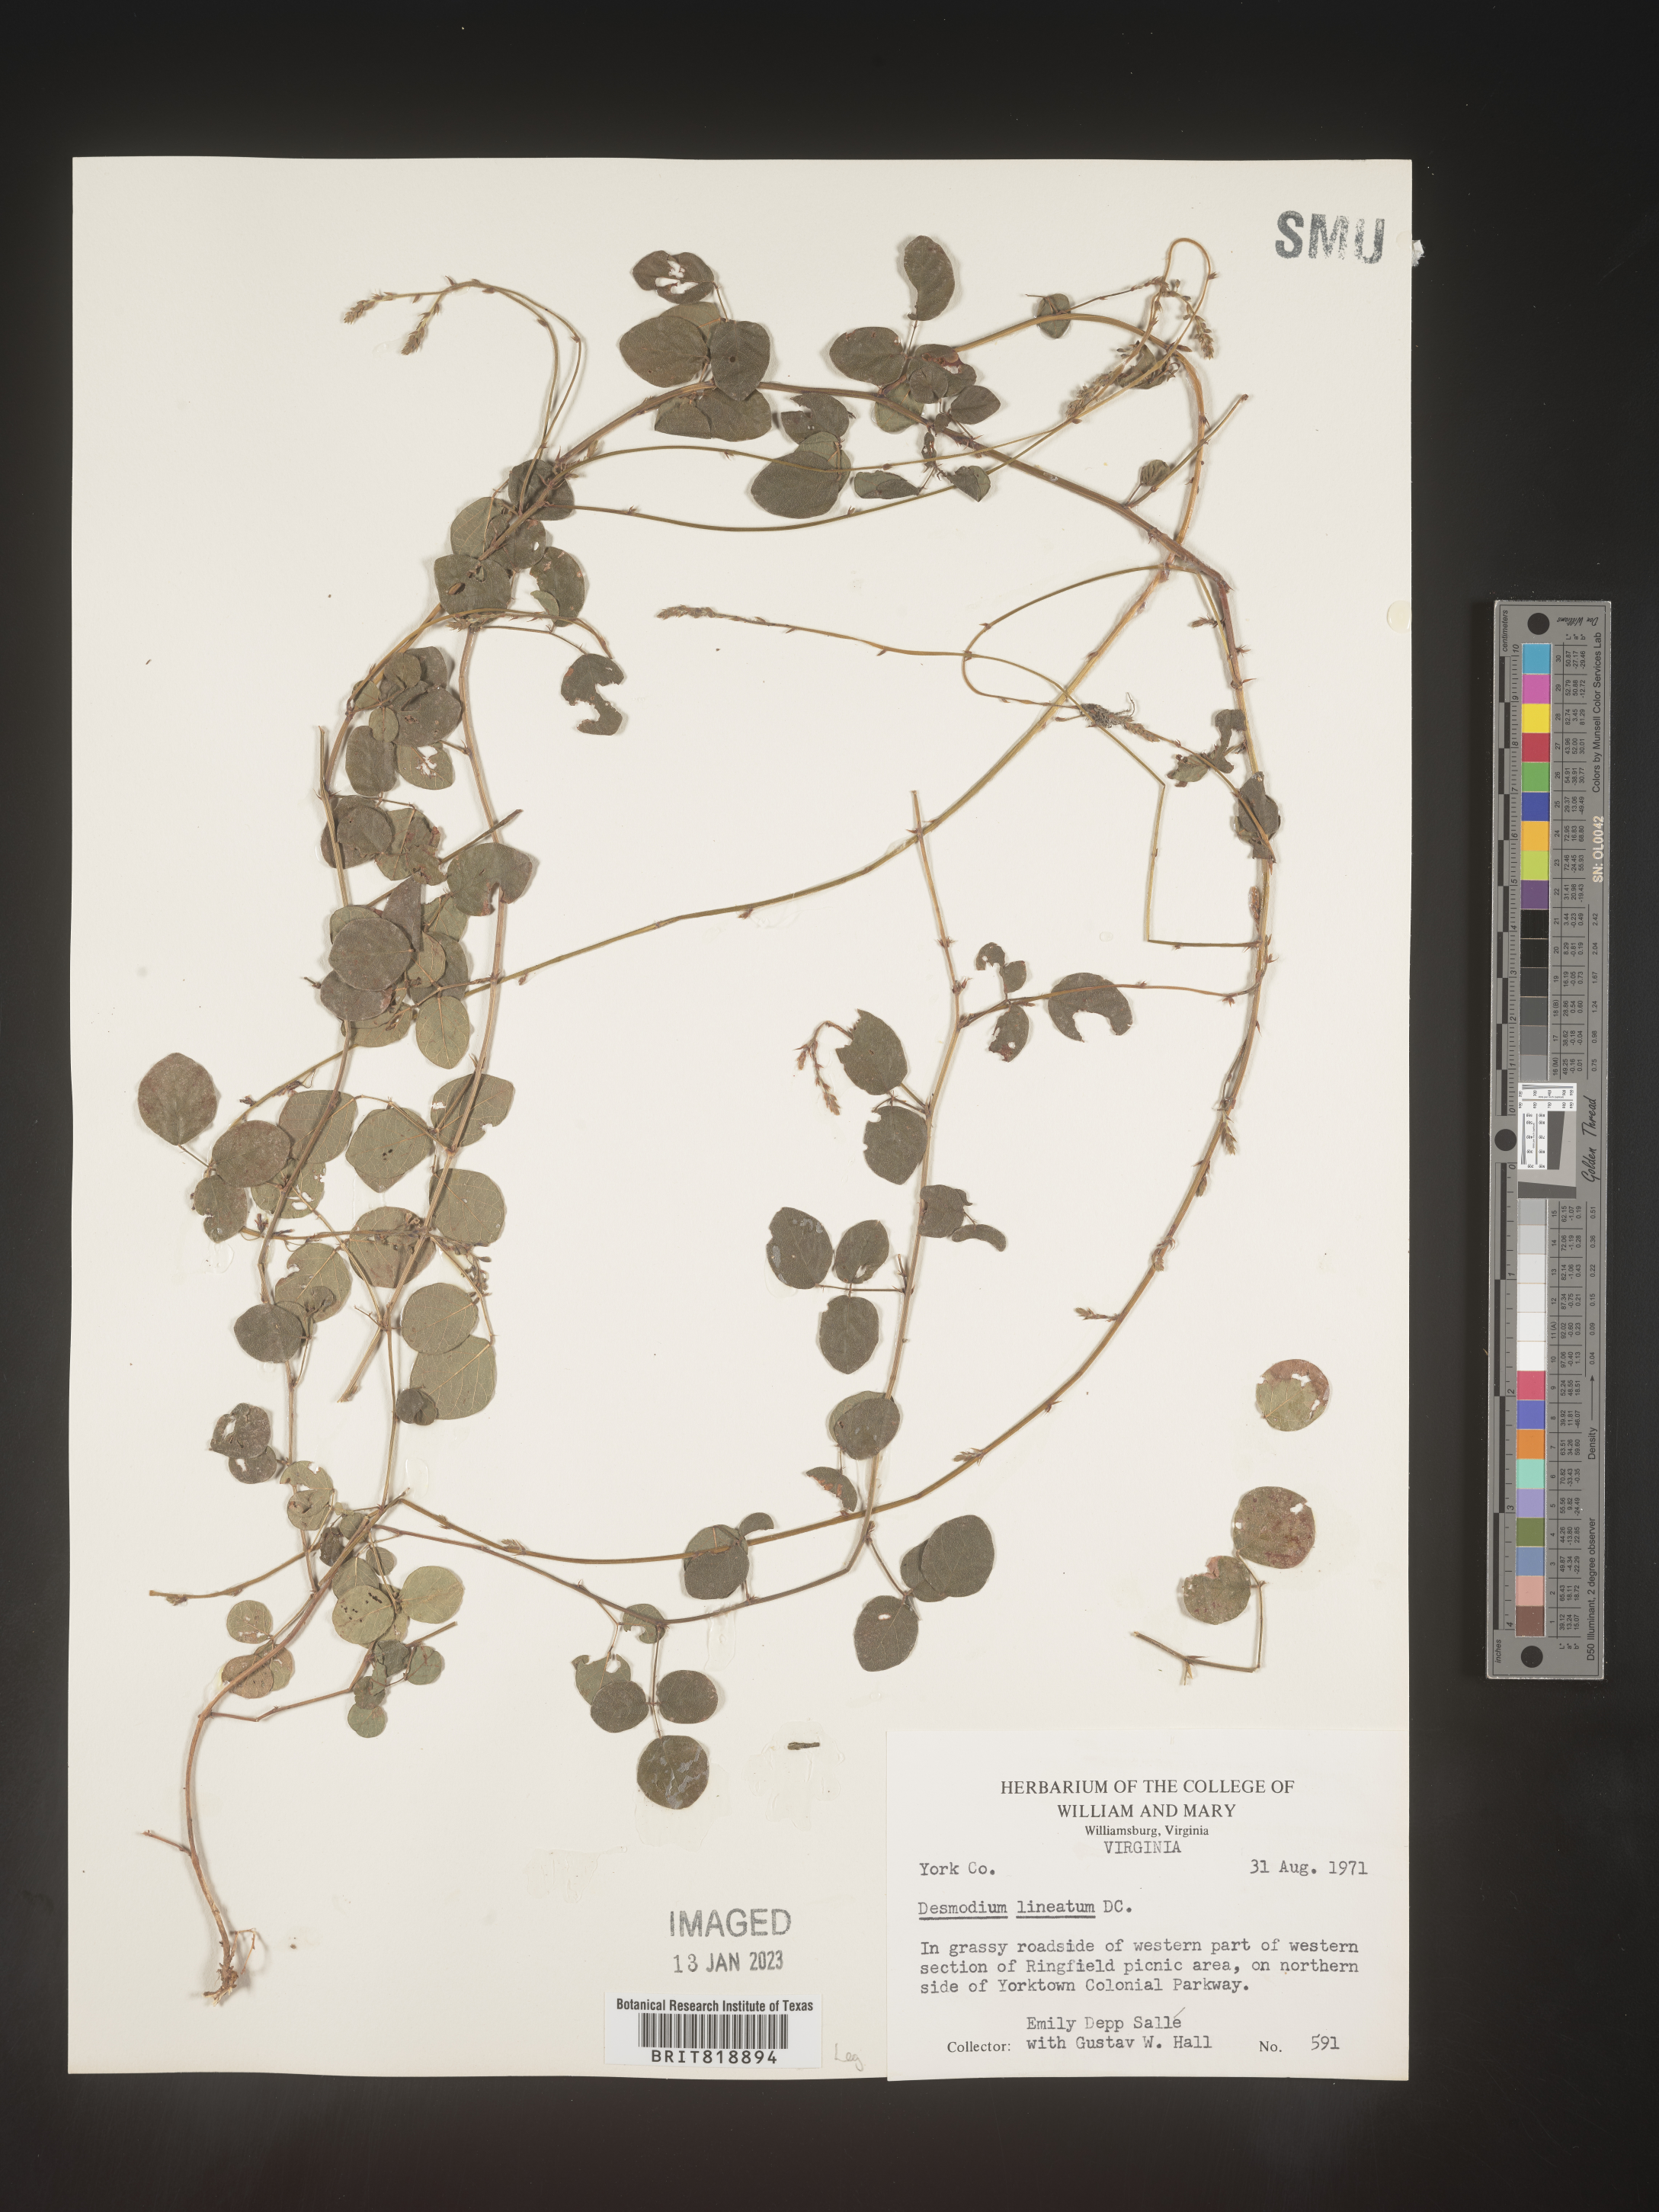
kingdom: Plantae
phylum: Tracheophyta
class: Magnoliopsida
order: Fabales
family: Fabaceae
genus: Desmodium
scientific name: Desmodium
